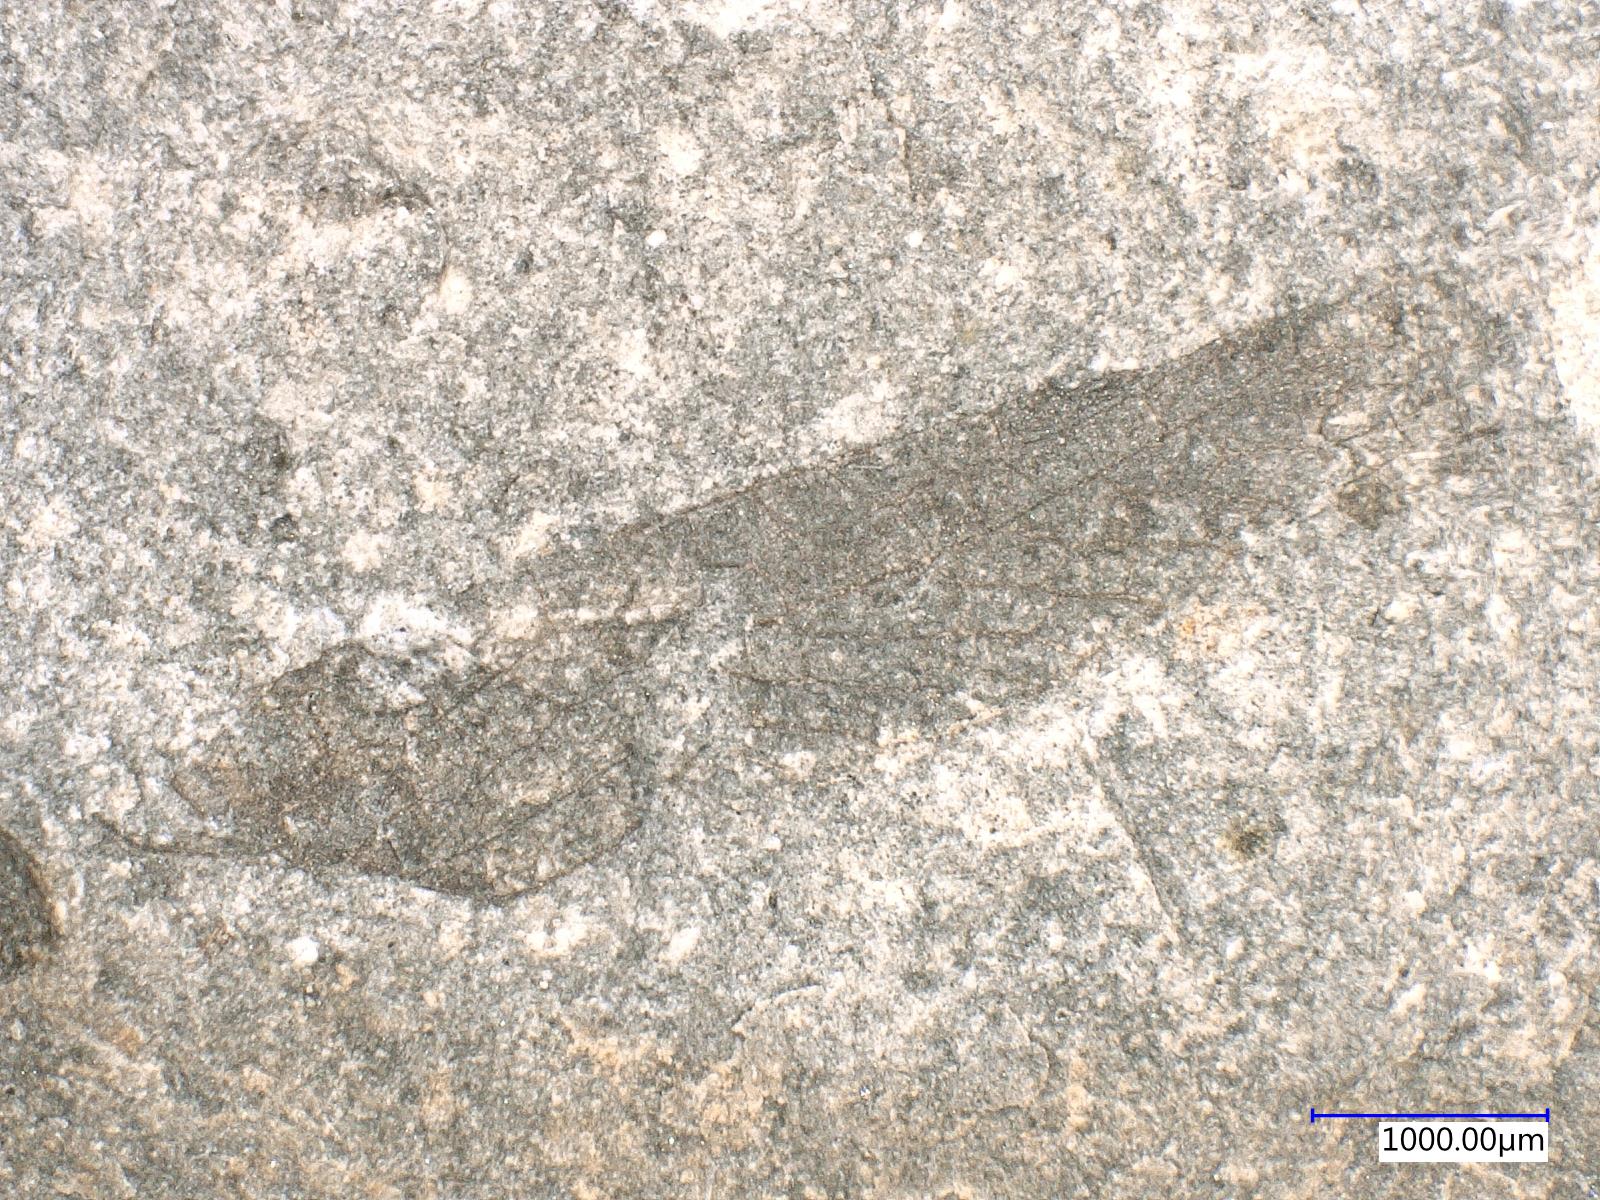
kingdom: Animalia
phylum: Arthropoda
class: Insecta
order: Orthoptera
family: Protogryllidae
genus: Protogryllus
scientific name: Protogryllus
